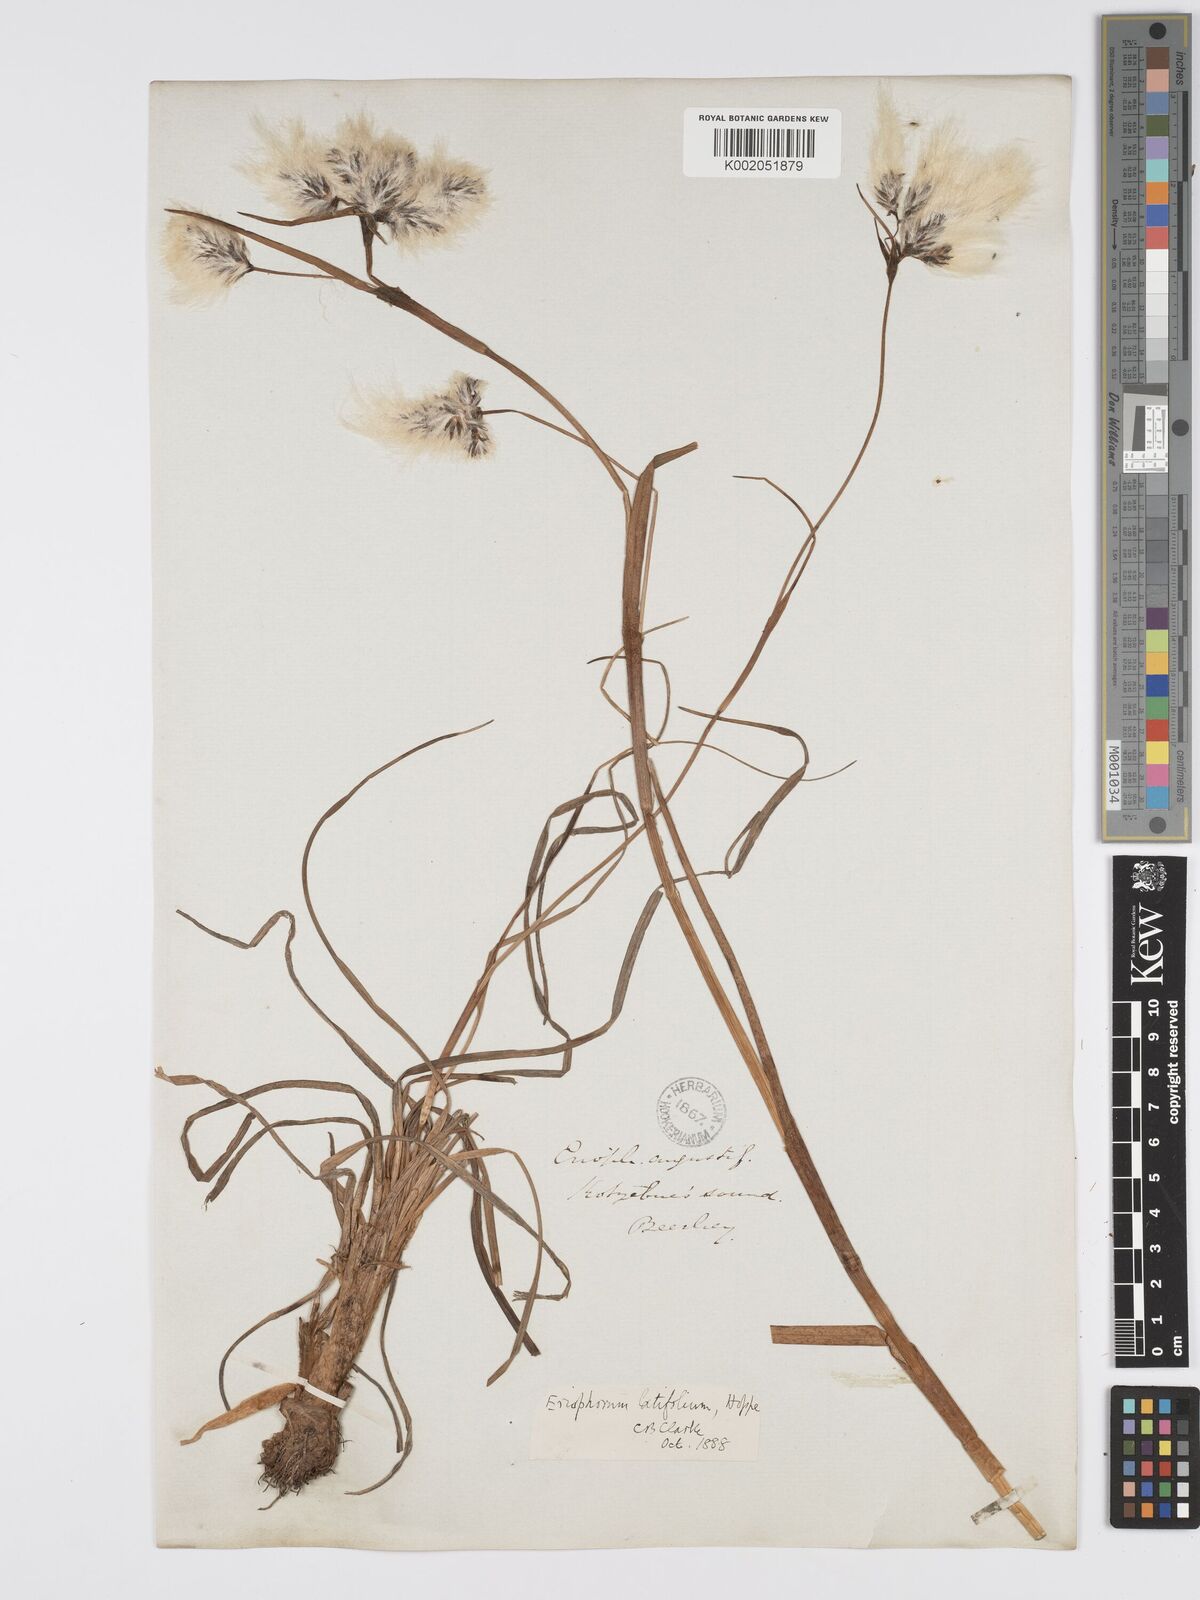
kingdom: Plantae
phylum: Tracheophyta
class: Liliopsida
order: Poales
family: Cyperaceae
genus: Eriophorum
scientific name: Eriophorum latifolium
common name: Broad-leaved cottongrass
